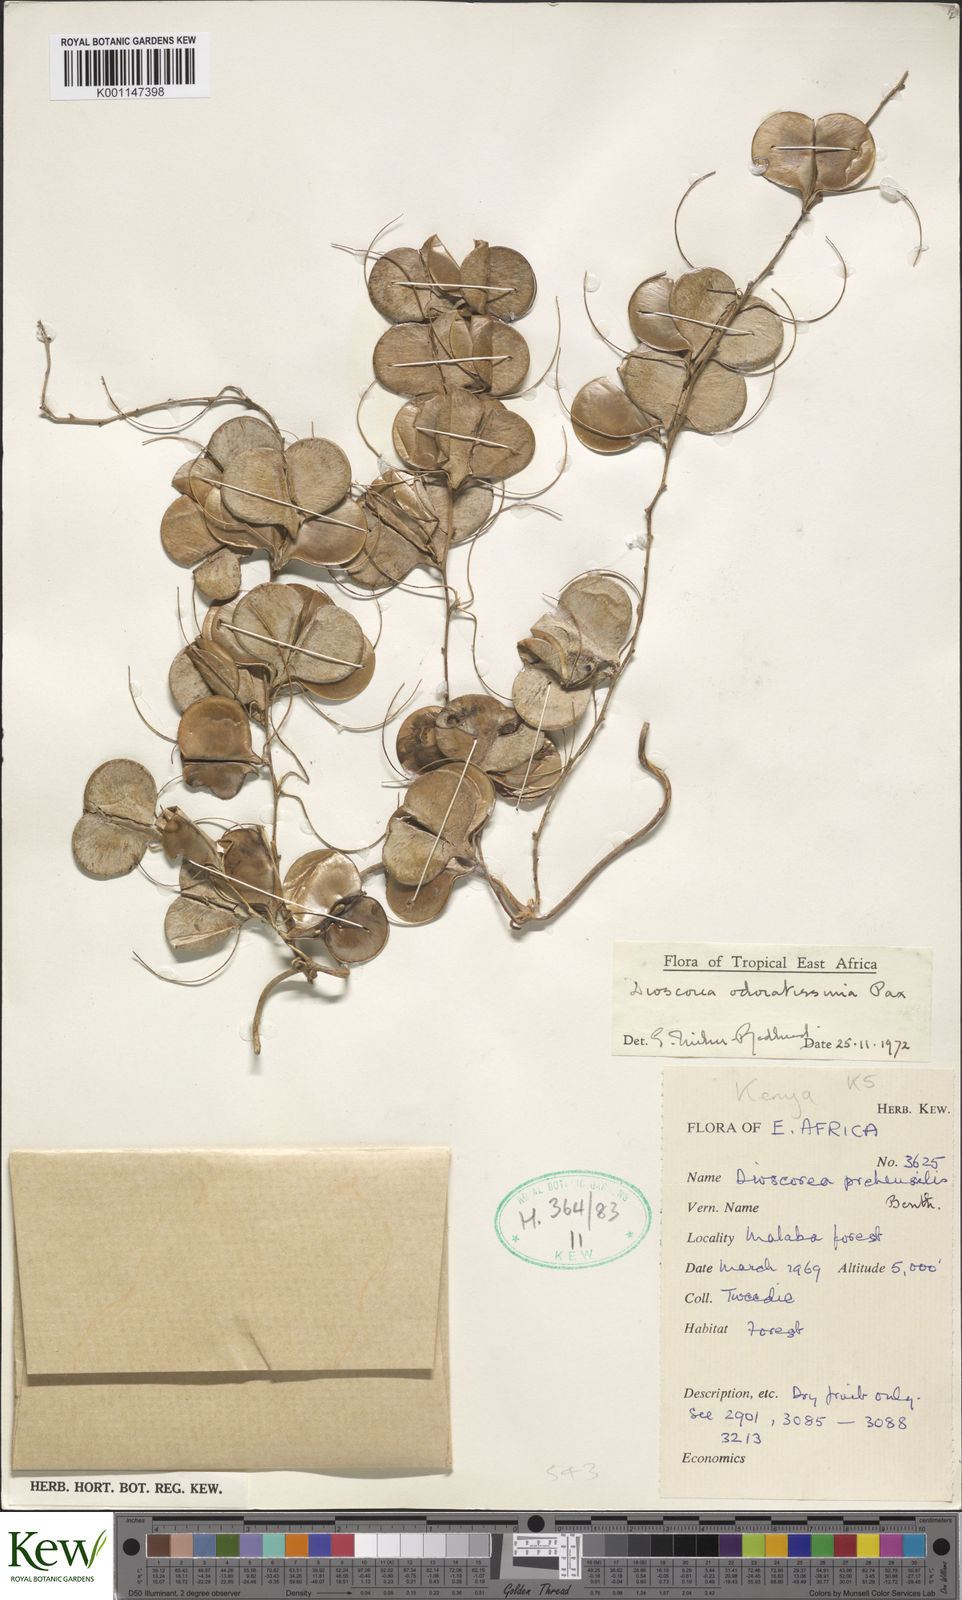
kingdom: Plantae
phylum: Tracheophyta
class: Liliopsida
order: Dioscoreales
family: Dioscoreaceae
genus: Dioscorea
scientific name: Dioscorea praehensilis
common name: Bush yam
